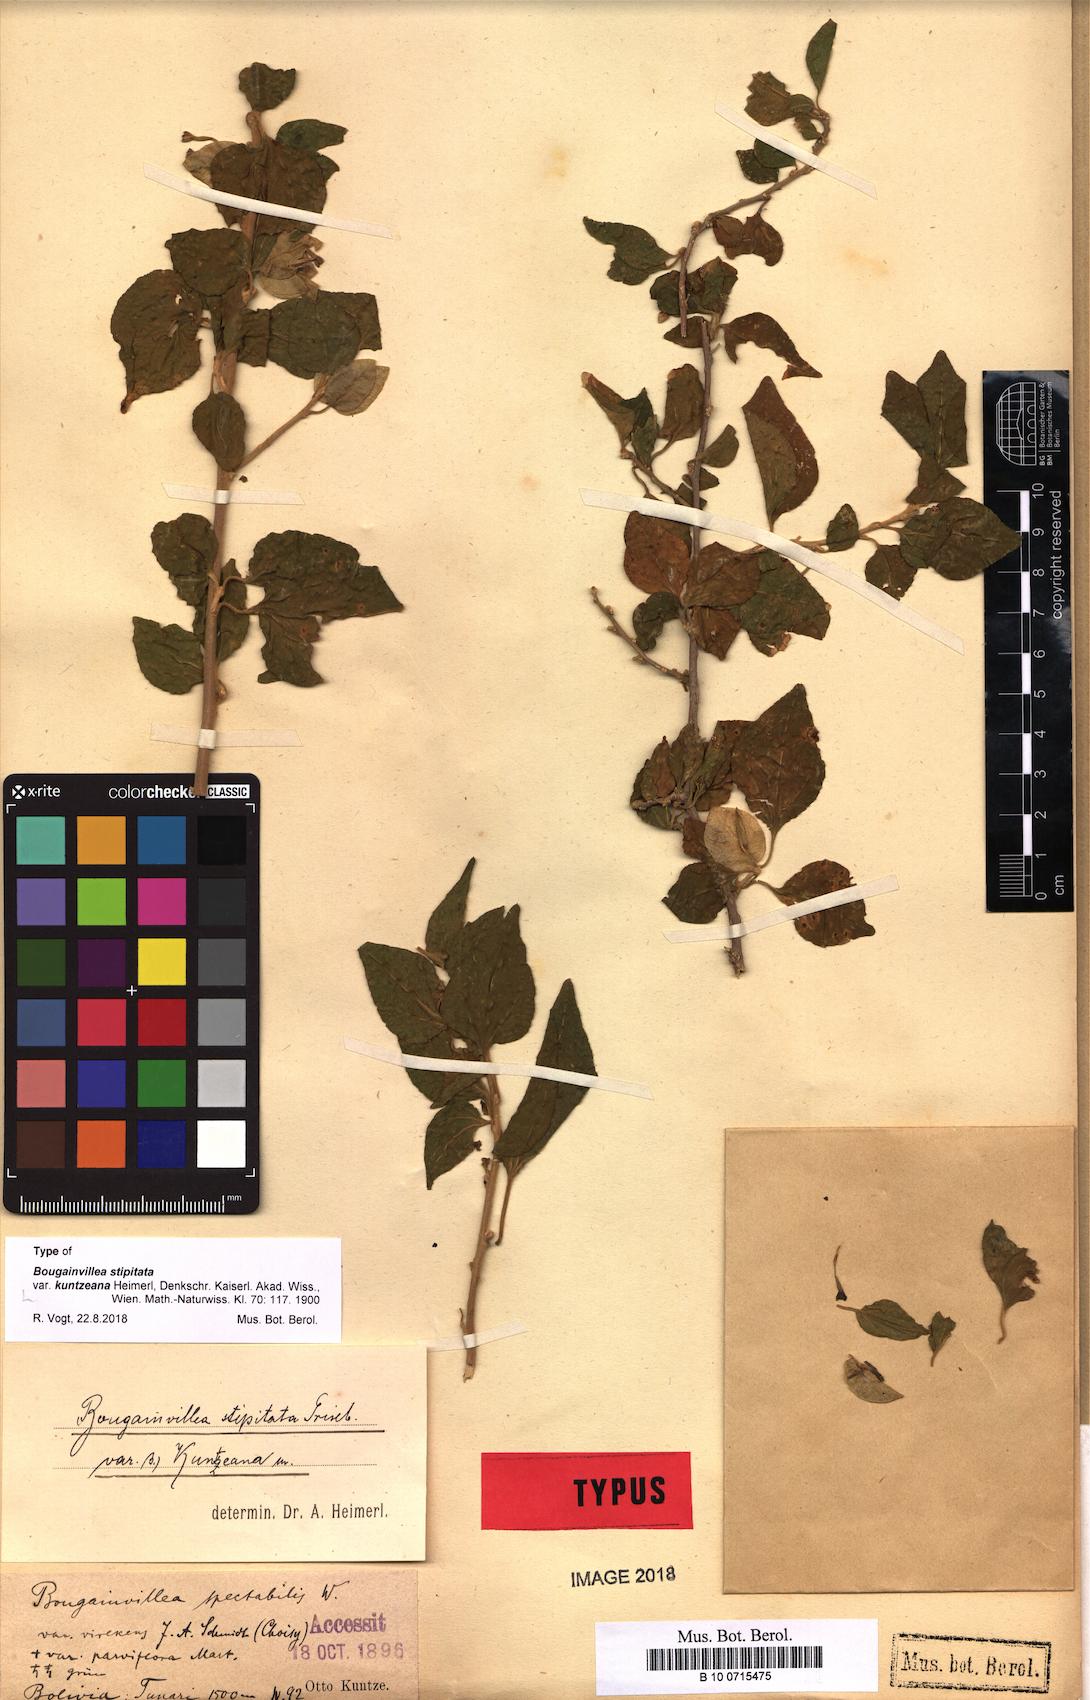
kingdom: Plantae
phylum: Tracheophyta
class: Magnoliopsida
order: Caryophyllales
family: Nyctaginaceae
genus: Bougainvillea
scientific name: Bougainvillea stipitata
